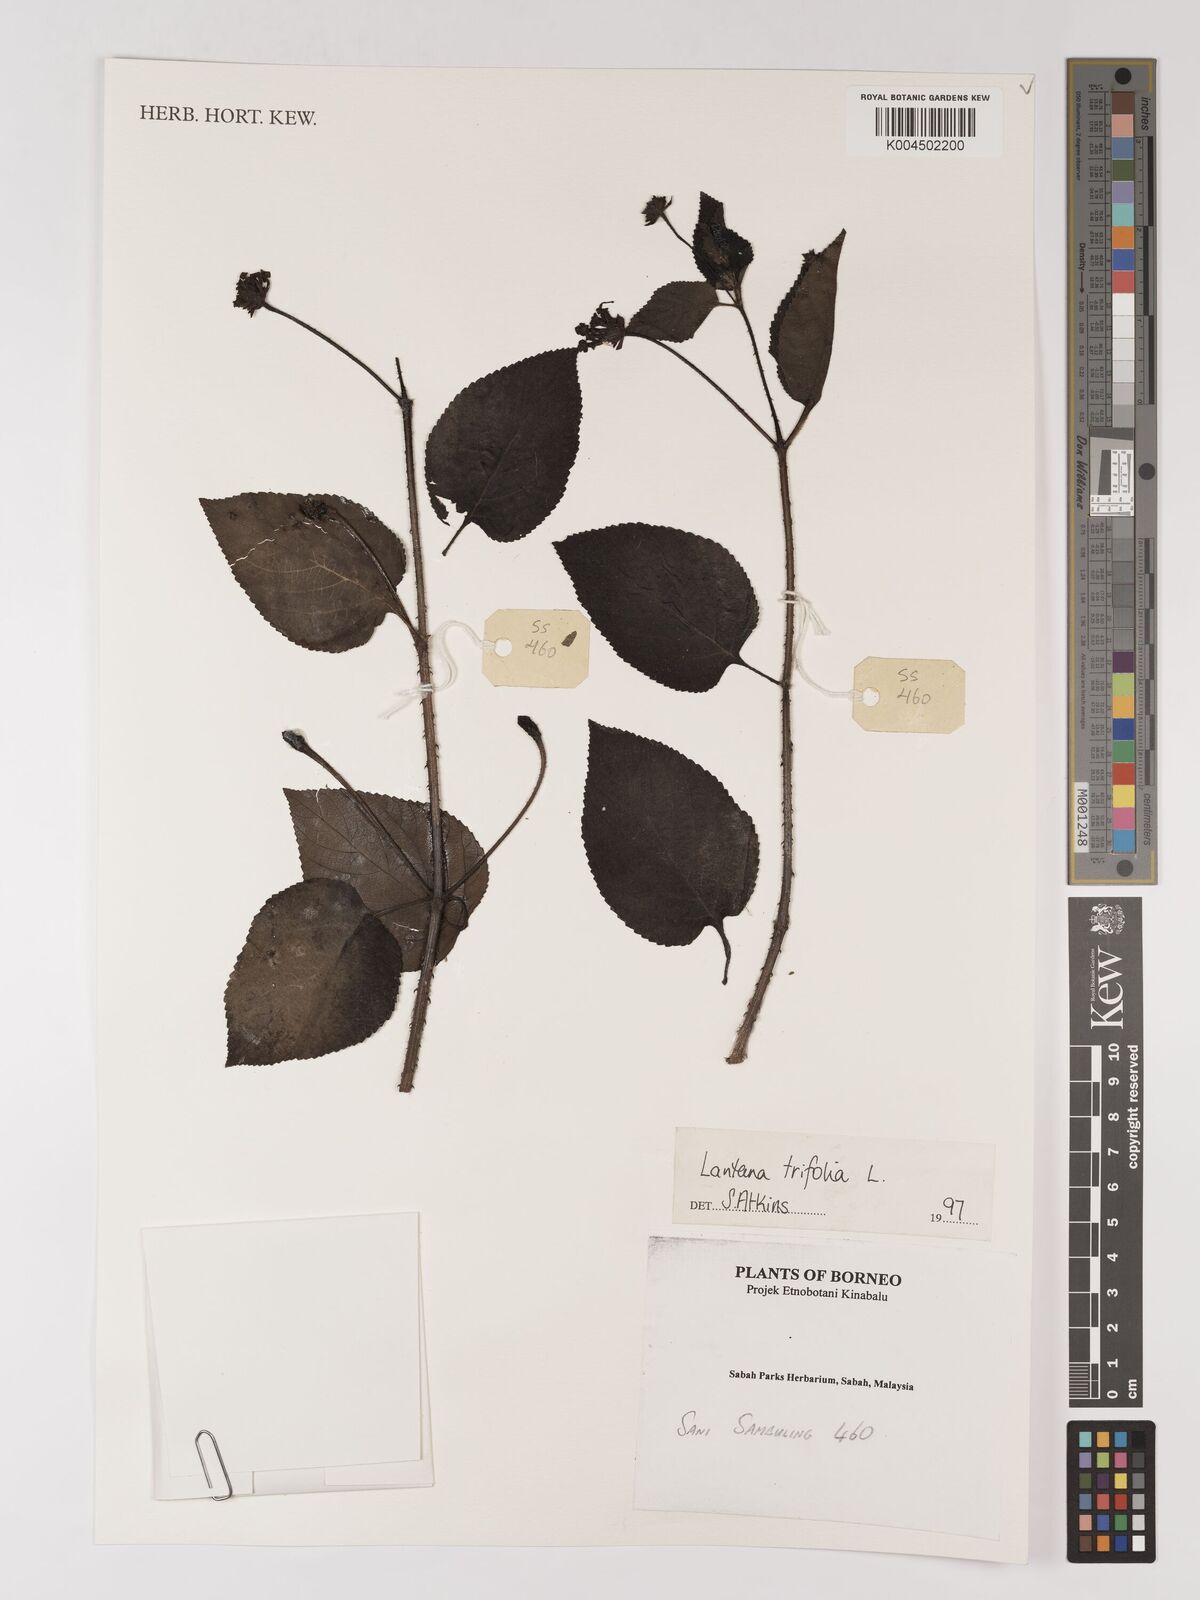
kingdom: Plantae
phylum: Tracheophyta
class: Magnoliopsida
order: Lamiales
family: Verbenaceae
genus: Lantana
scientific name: Lantana trifolia
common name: Sweet-sage
